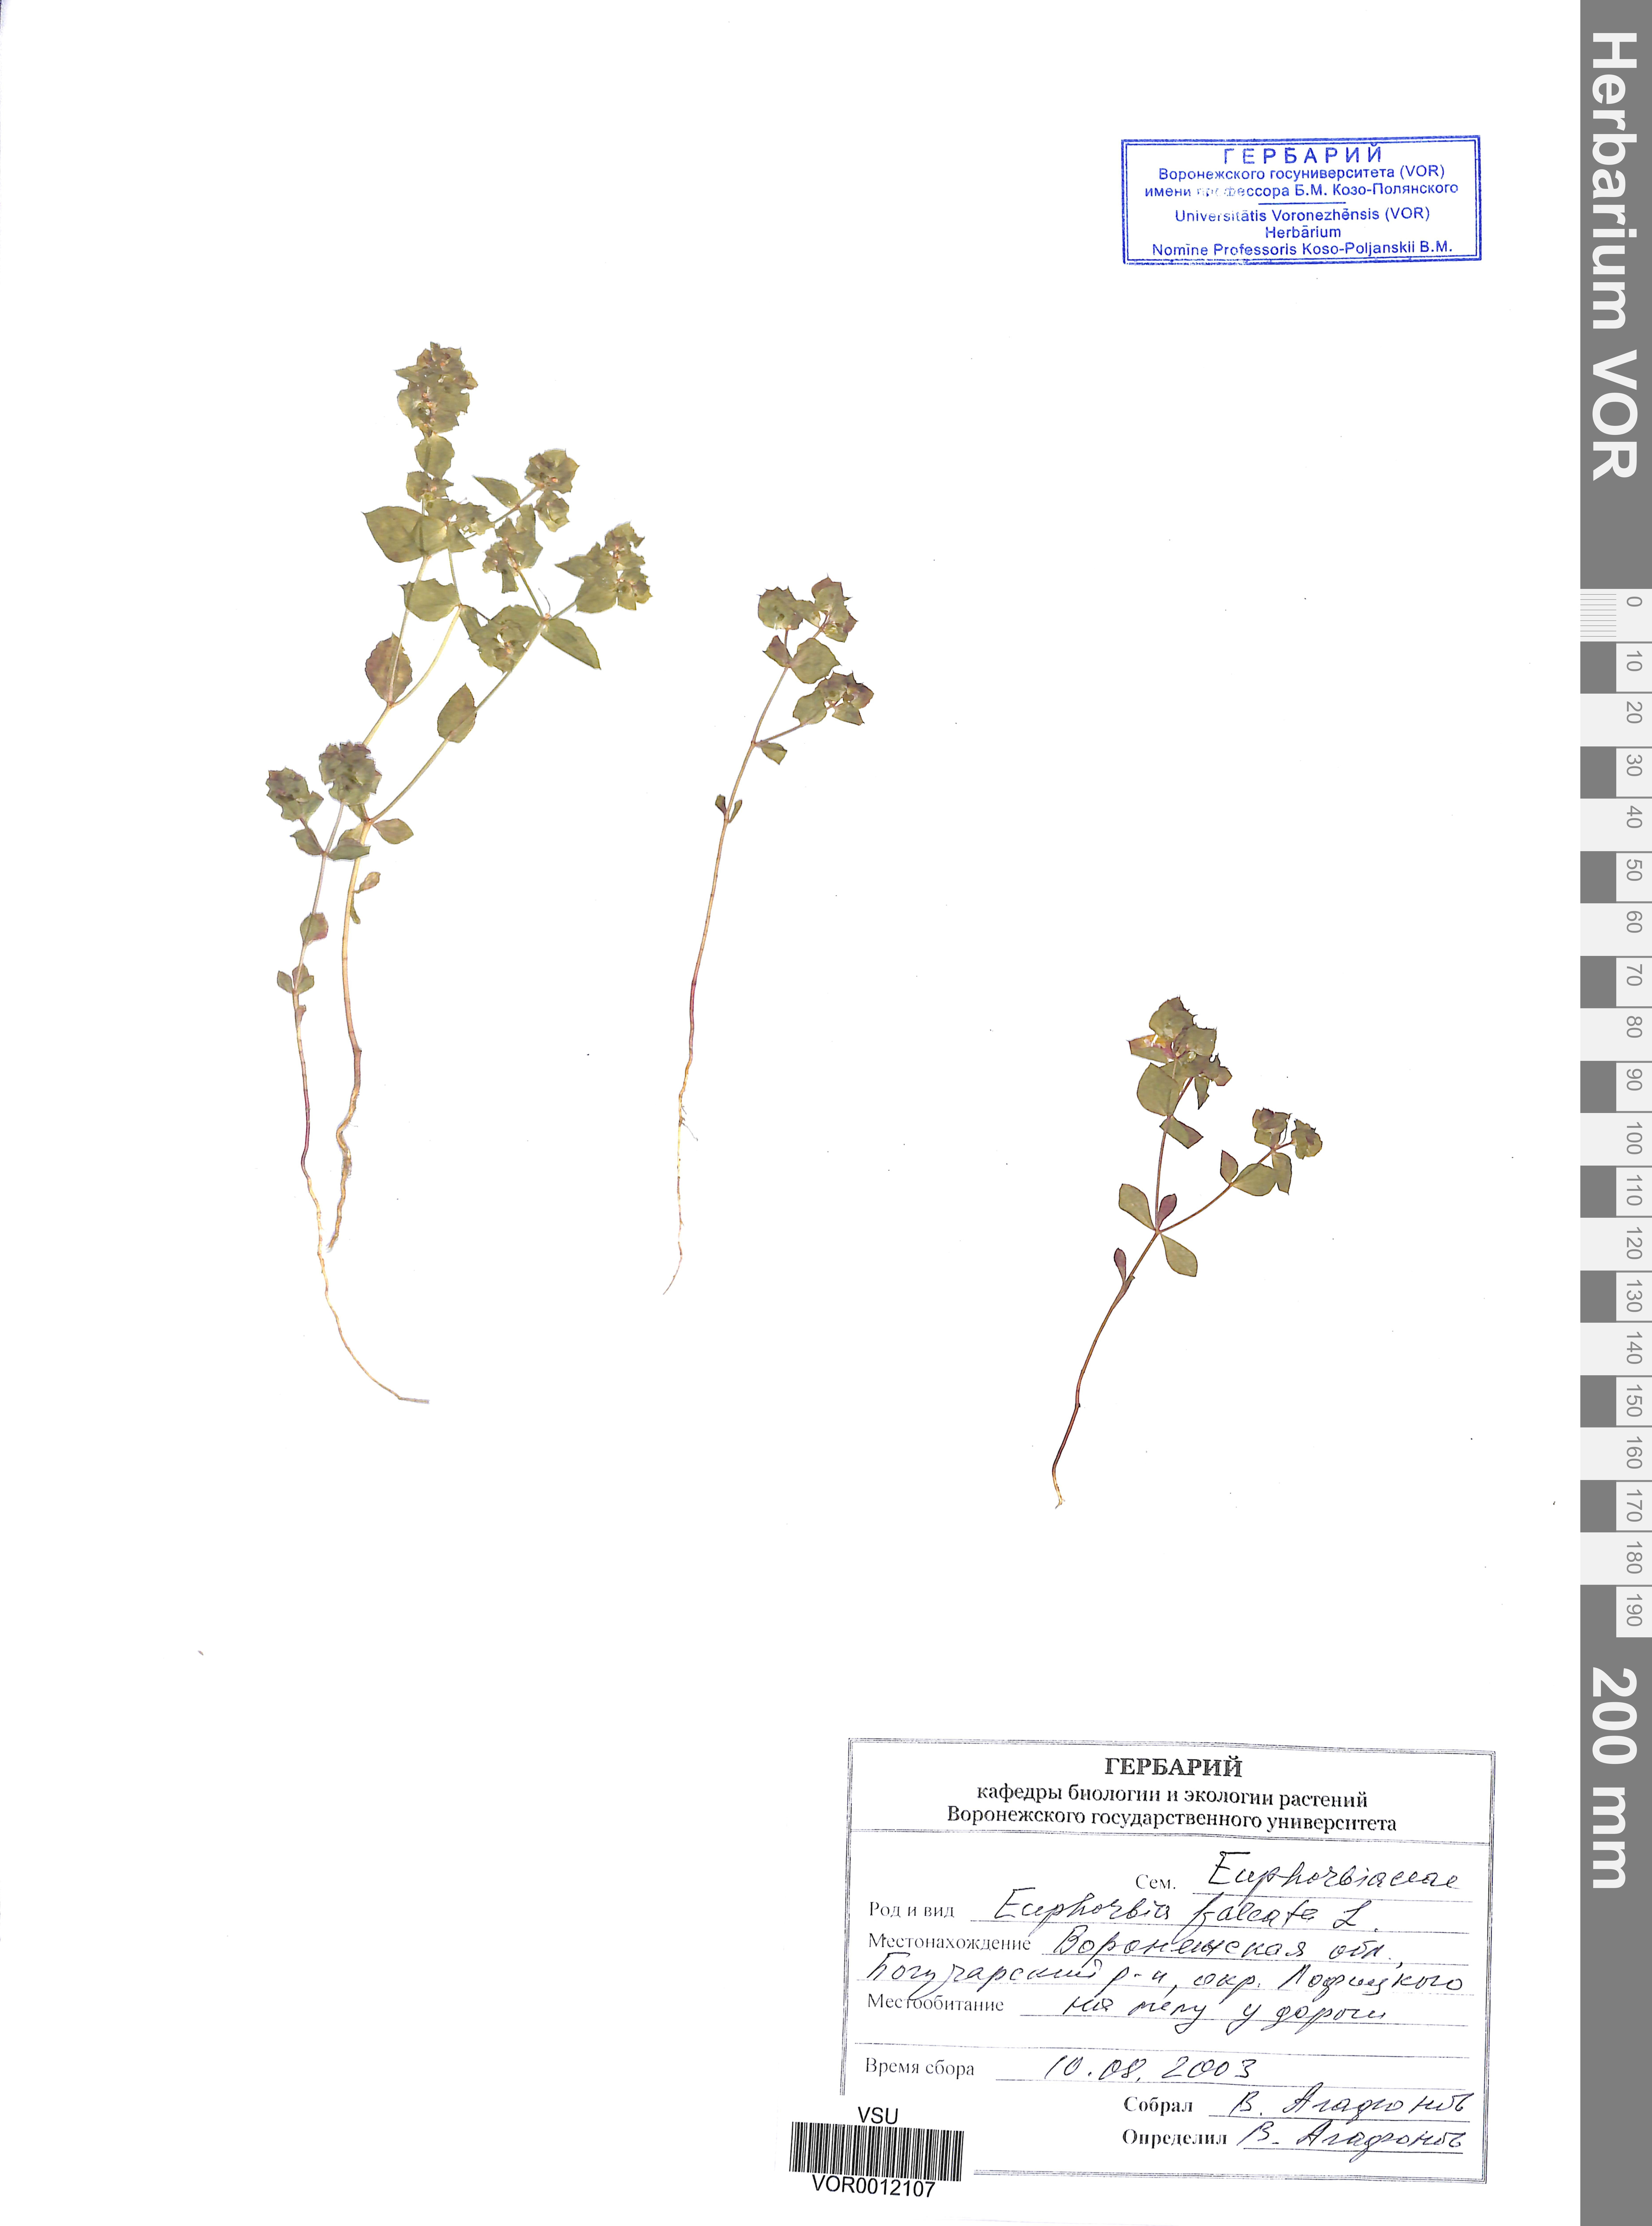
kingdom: Plantae
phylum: Tracheophyta
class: Magnoliopsida
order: Malpighiales
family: Euphorbiaceae
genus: Euphorbia
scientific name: Euphorbia falcata
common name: Sickle spurge
